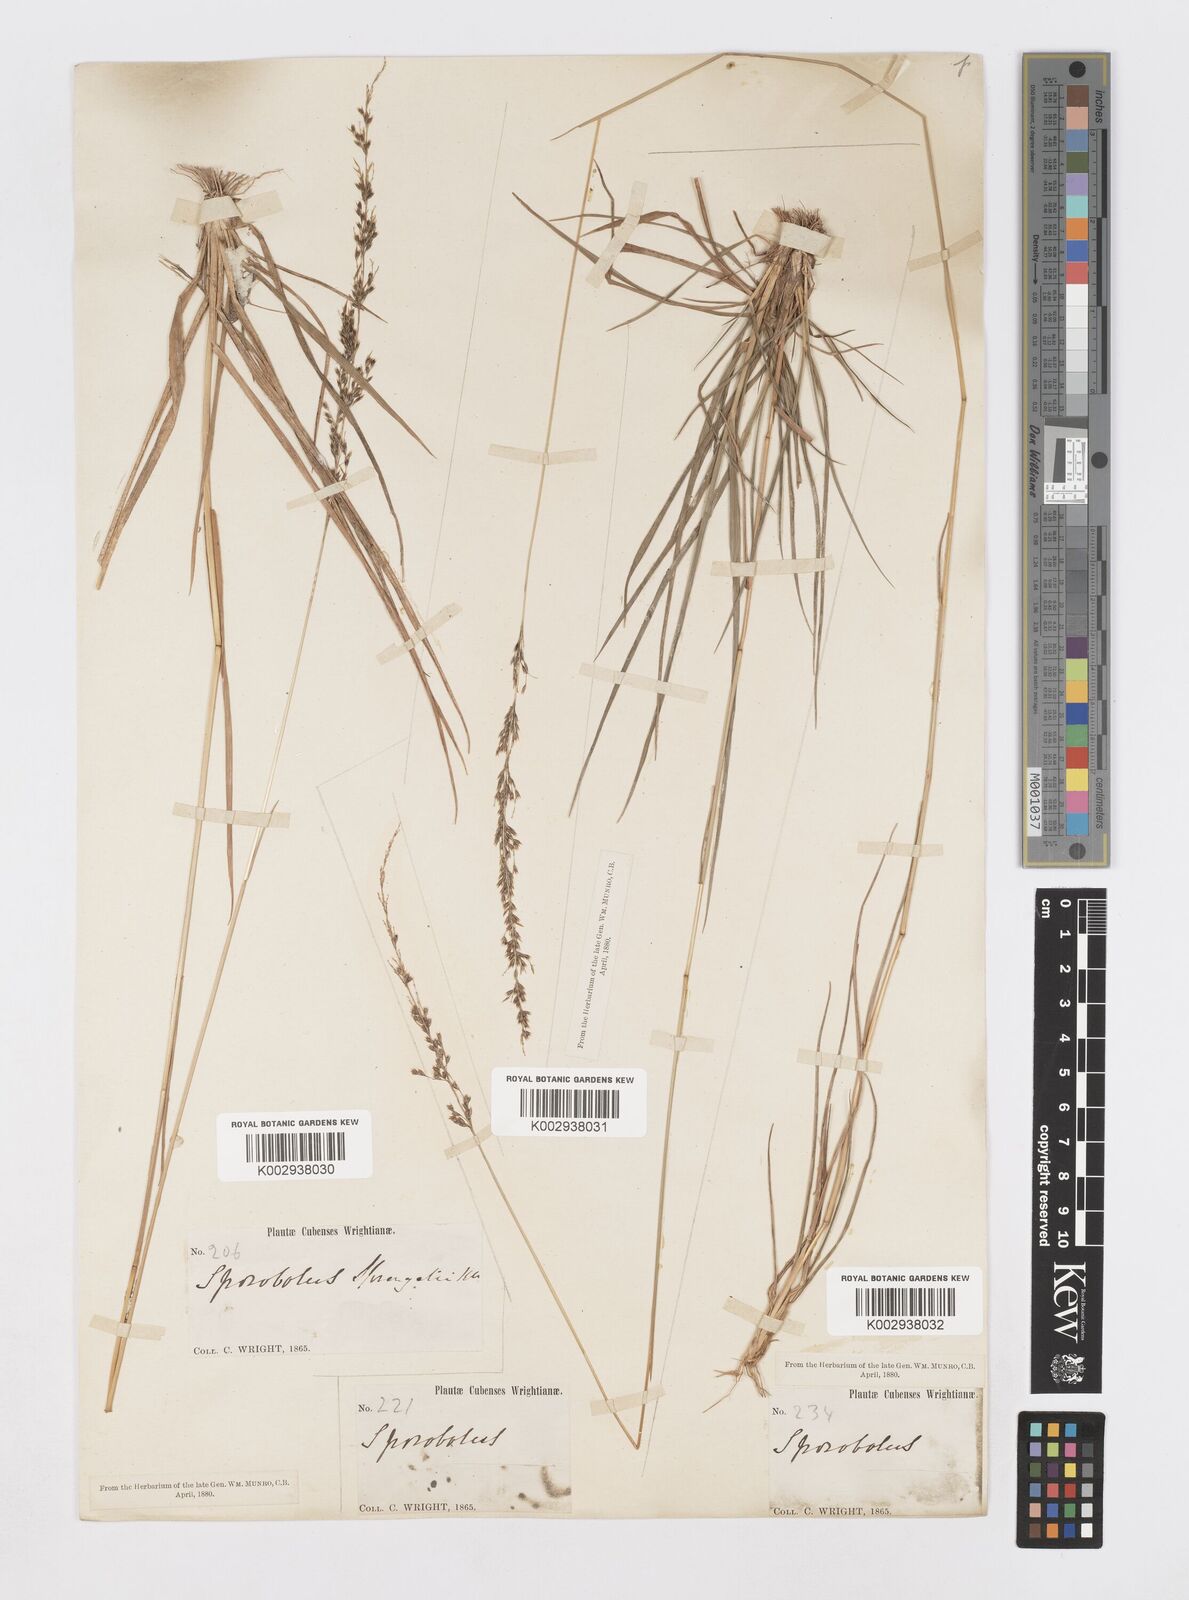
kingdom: Plantae
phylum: Tracheophyta
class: Liliopsida
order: Poales
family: Poaceae
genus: Sporobolus
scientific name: Sporobolus purpurascens
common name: Purple dropseed
